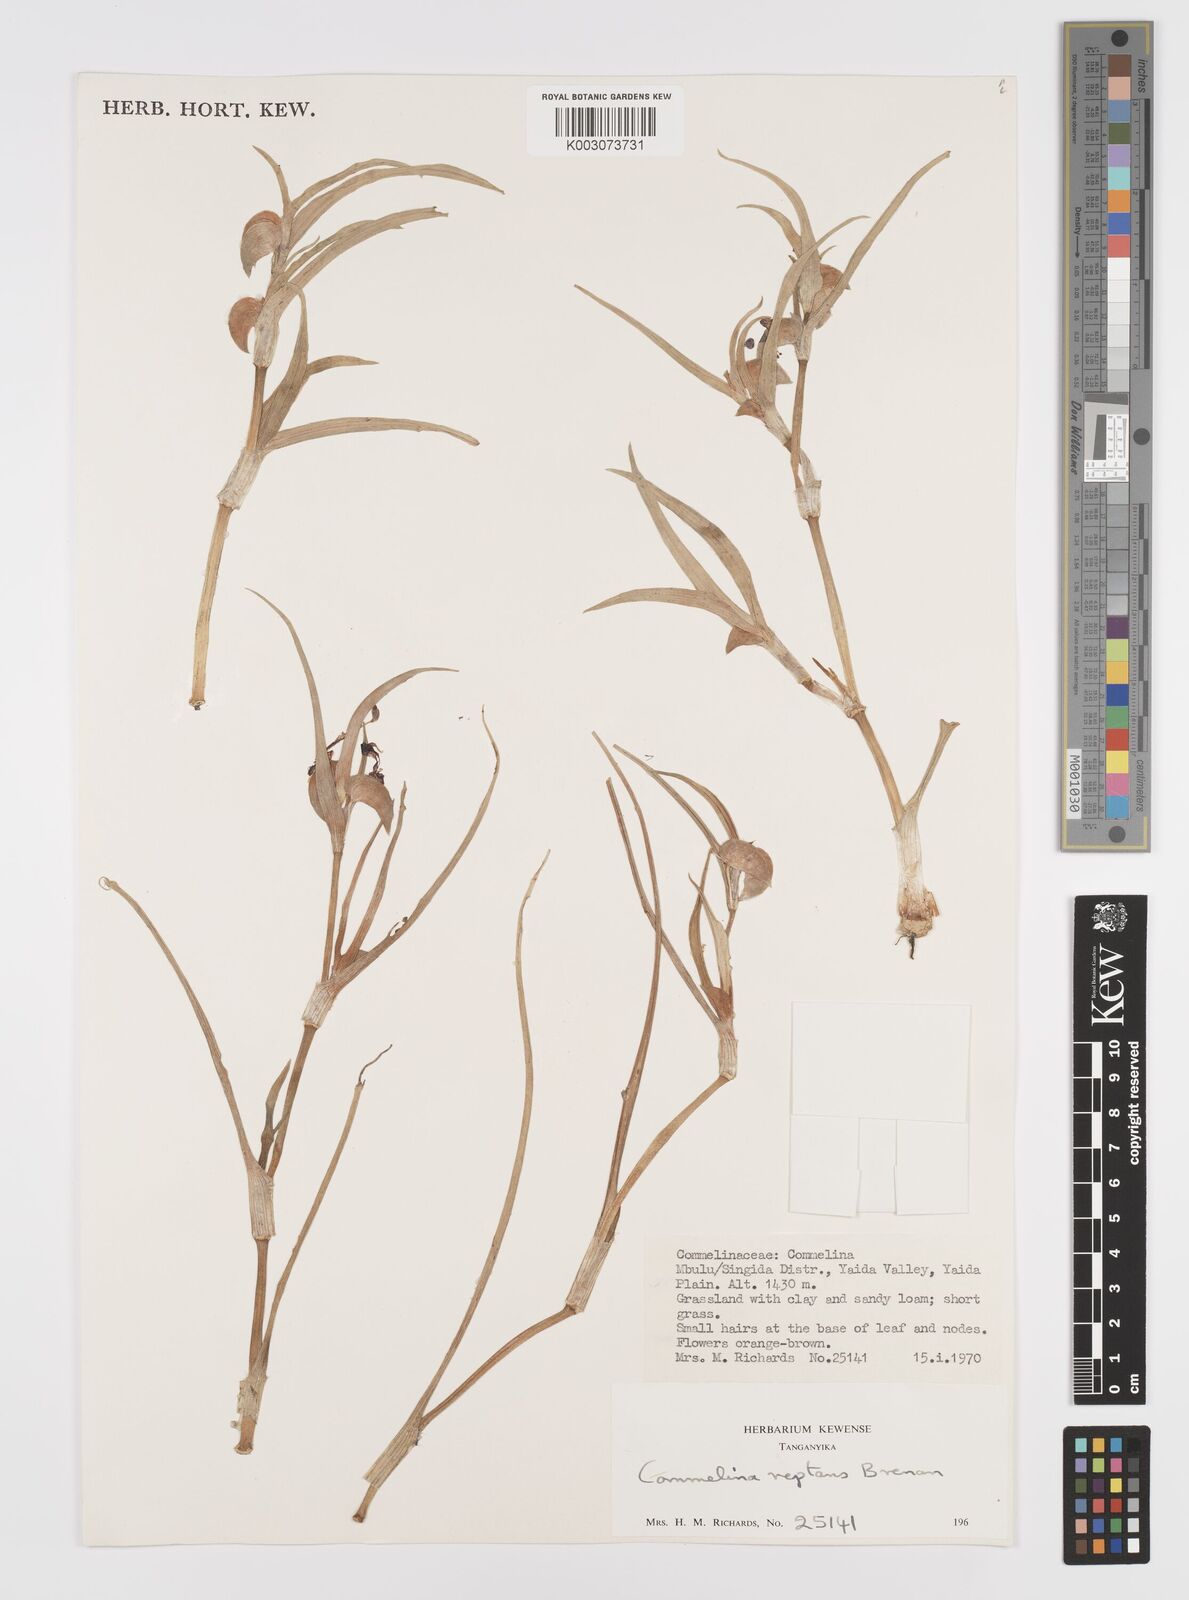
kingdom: Plantae
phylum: Tracheophyta
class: Liliopsida
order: Commelinales
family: Commelinaceae
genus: Commelina
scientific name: Commelina reptans
